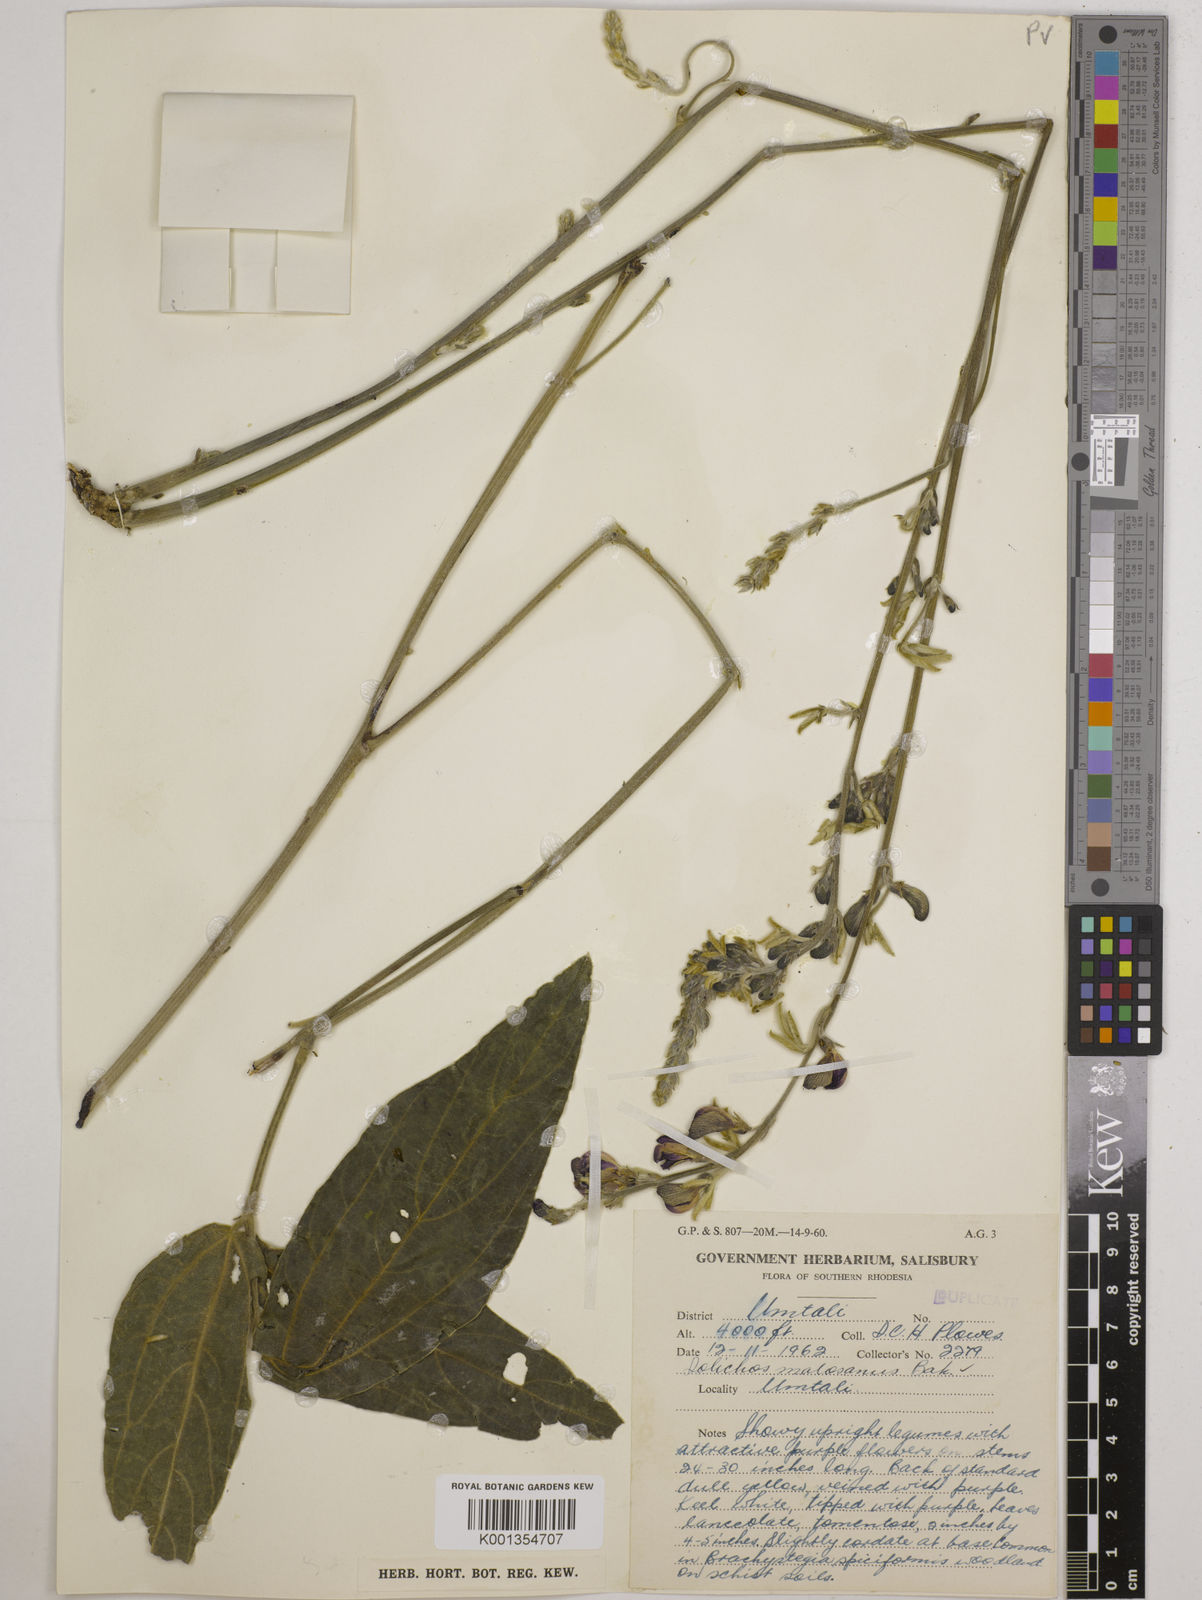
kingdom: Plantae
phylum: Tracheophyta
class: Magnoliopsida
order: Fabales
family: Fabaceae
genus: Dolichos
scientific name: Dolichos kilimandscharicus
